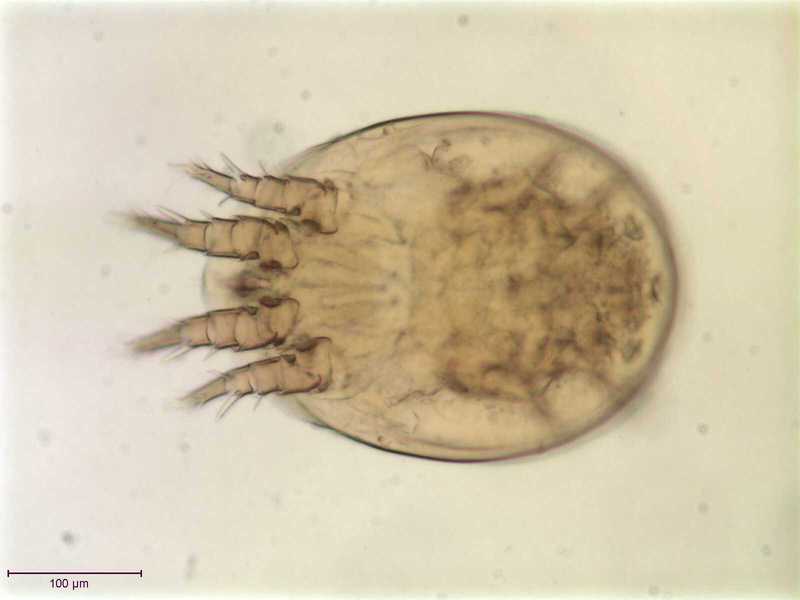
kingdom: Animalia
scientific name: Animalia
